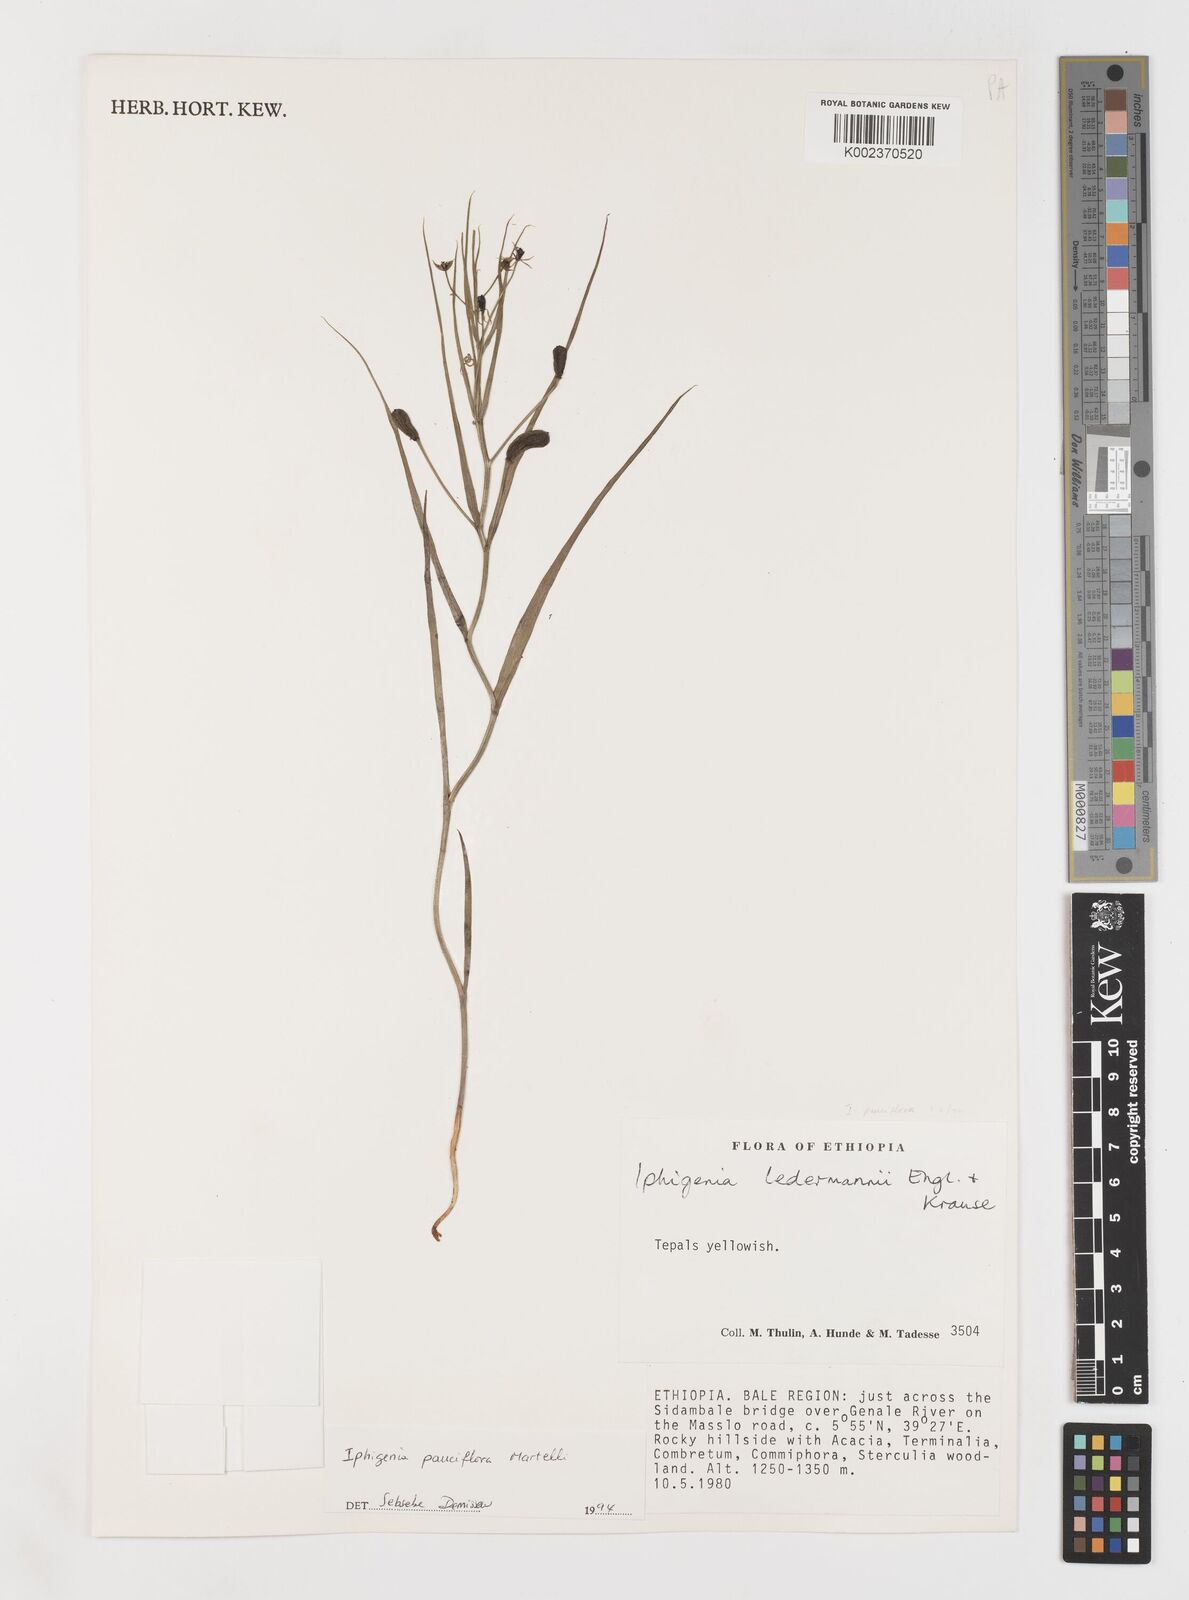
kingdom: Plantae
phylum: Tracheophyta
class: Liliopsida
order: Liliales
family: Colchicaceae
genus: Iphigenia
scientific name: Iphigenia pauciflora
